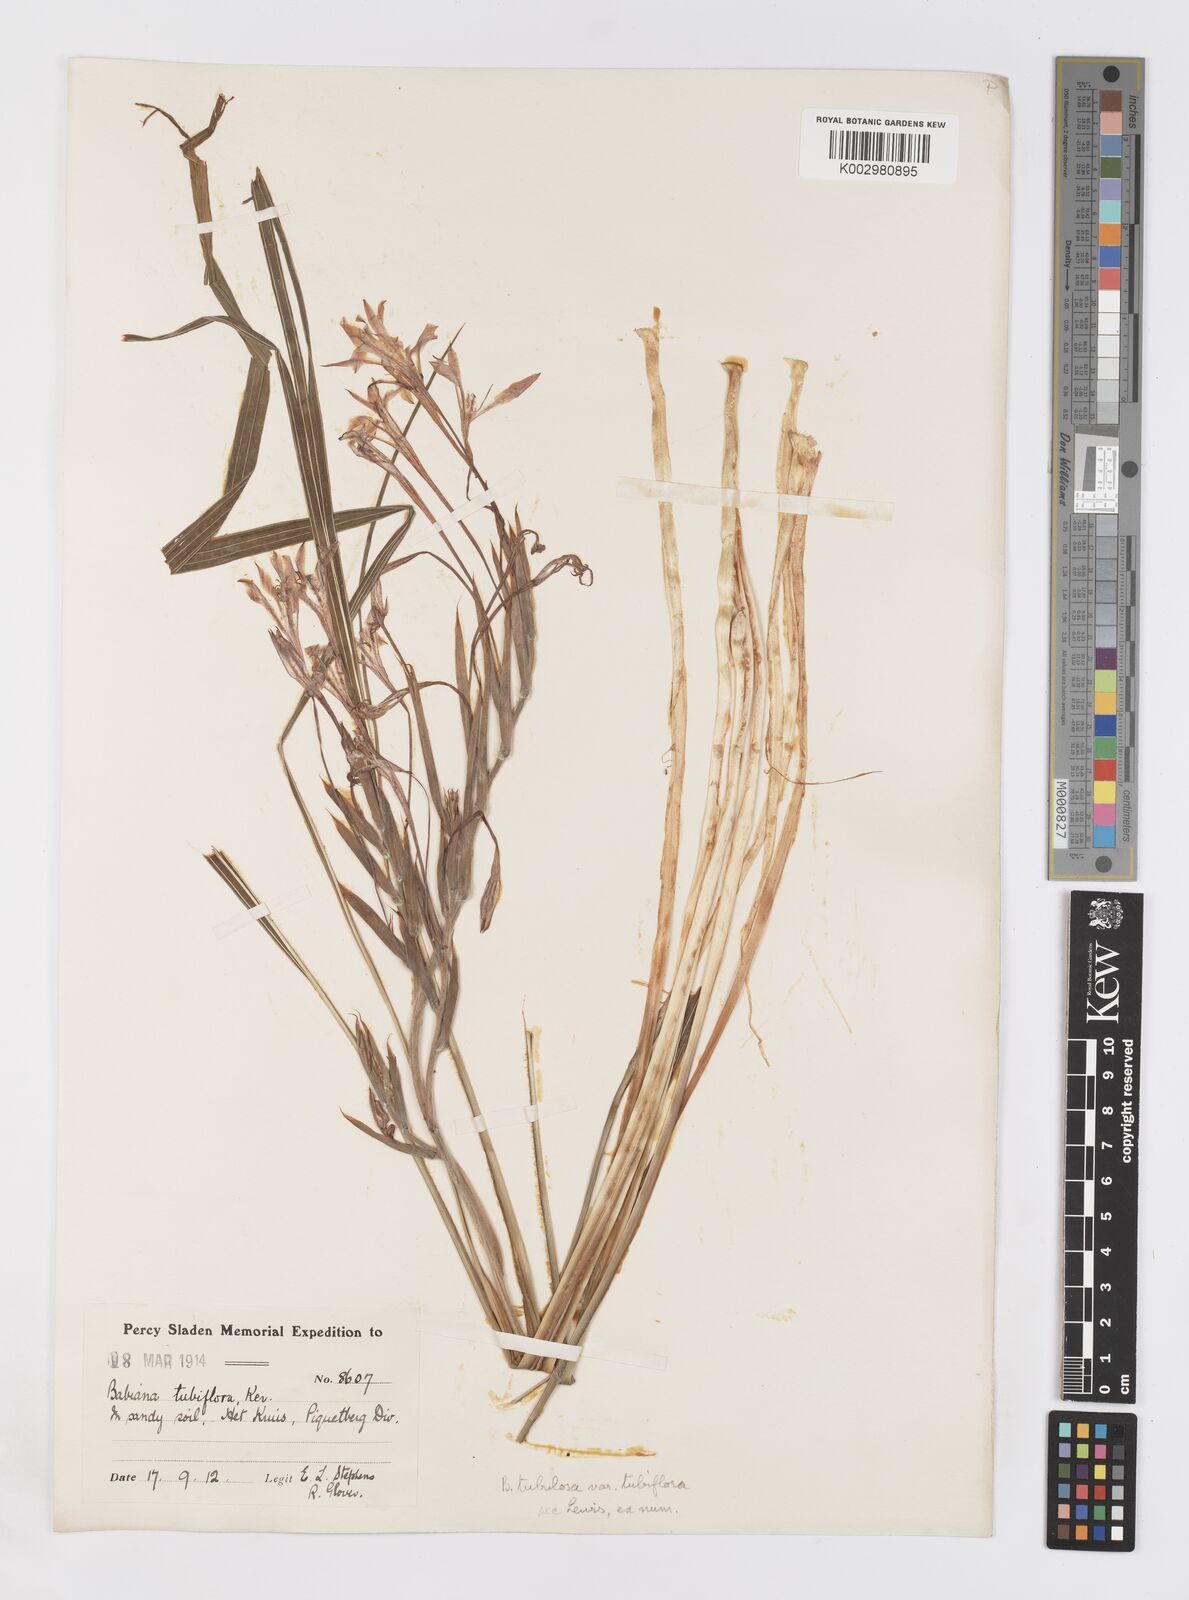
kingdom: Plantae
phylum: Tracheophyta
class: Liliopsida
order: Asparagales
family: Iridaceae
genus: Babiana
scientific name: Babiana tubiflora
